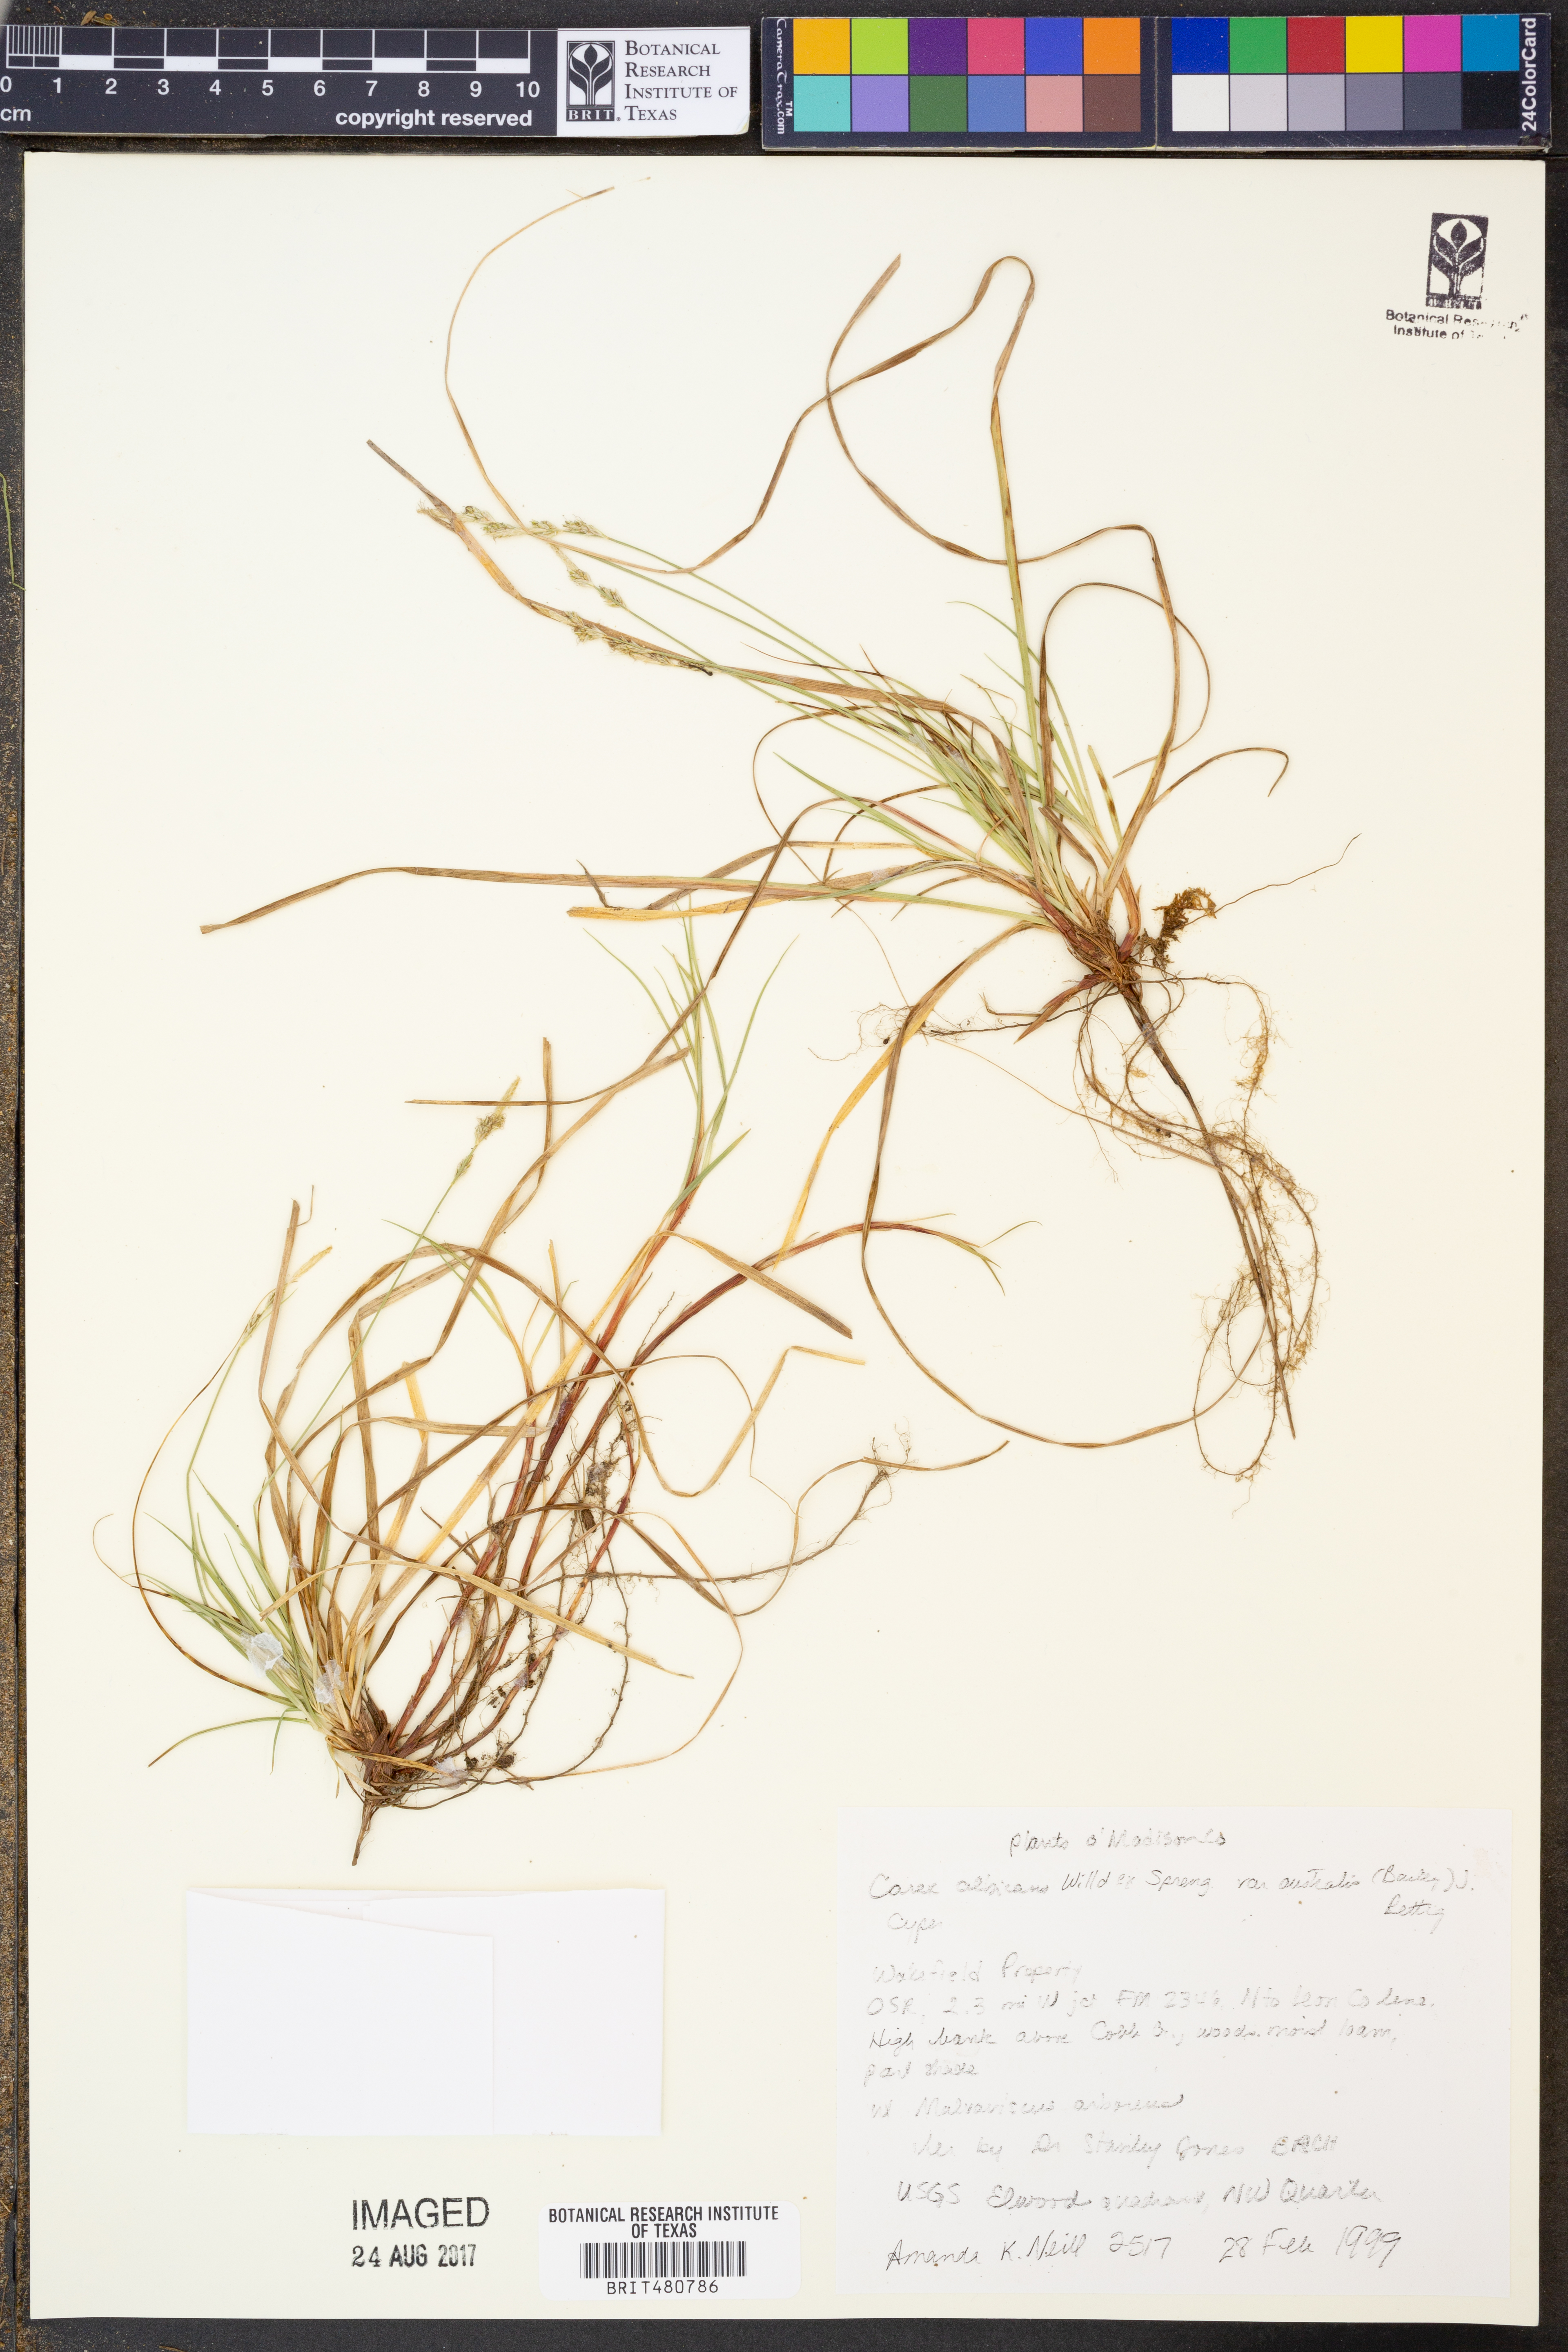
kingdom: Plantae
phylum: Tracheophyta
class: Liliopsida
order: Poales
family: Cyperaceae
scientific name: Cyperaceae
